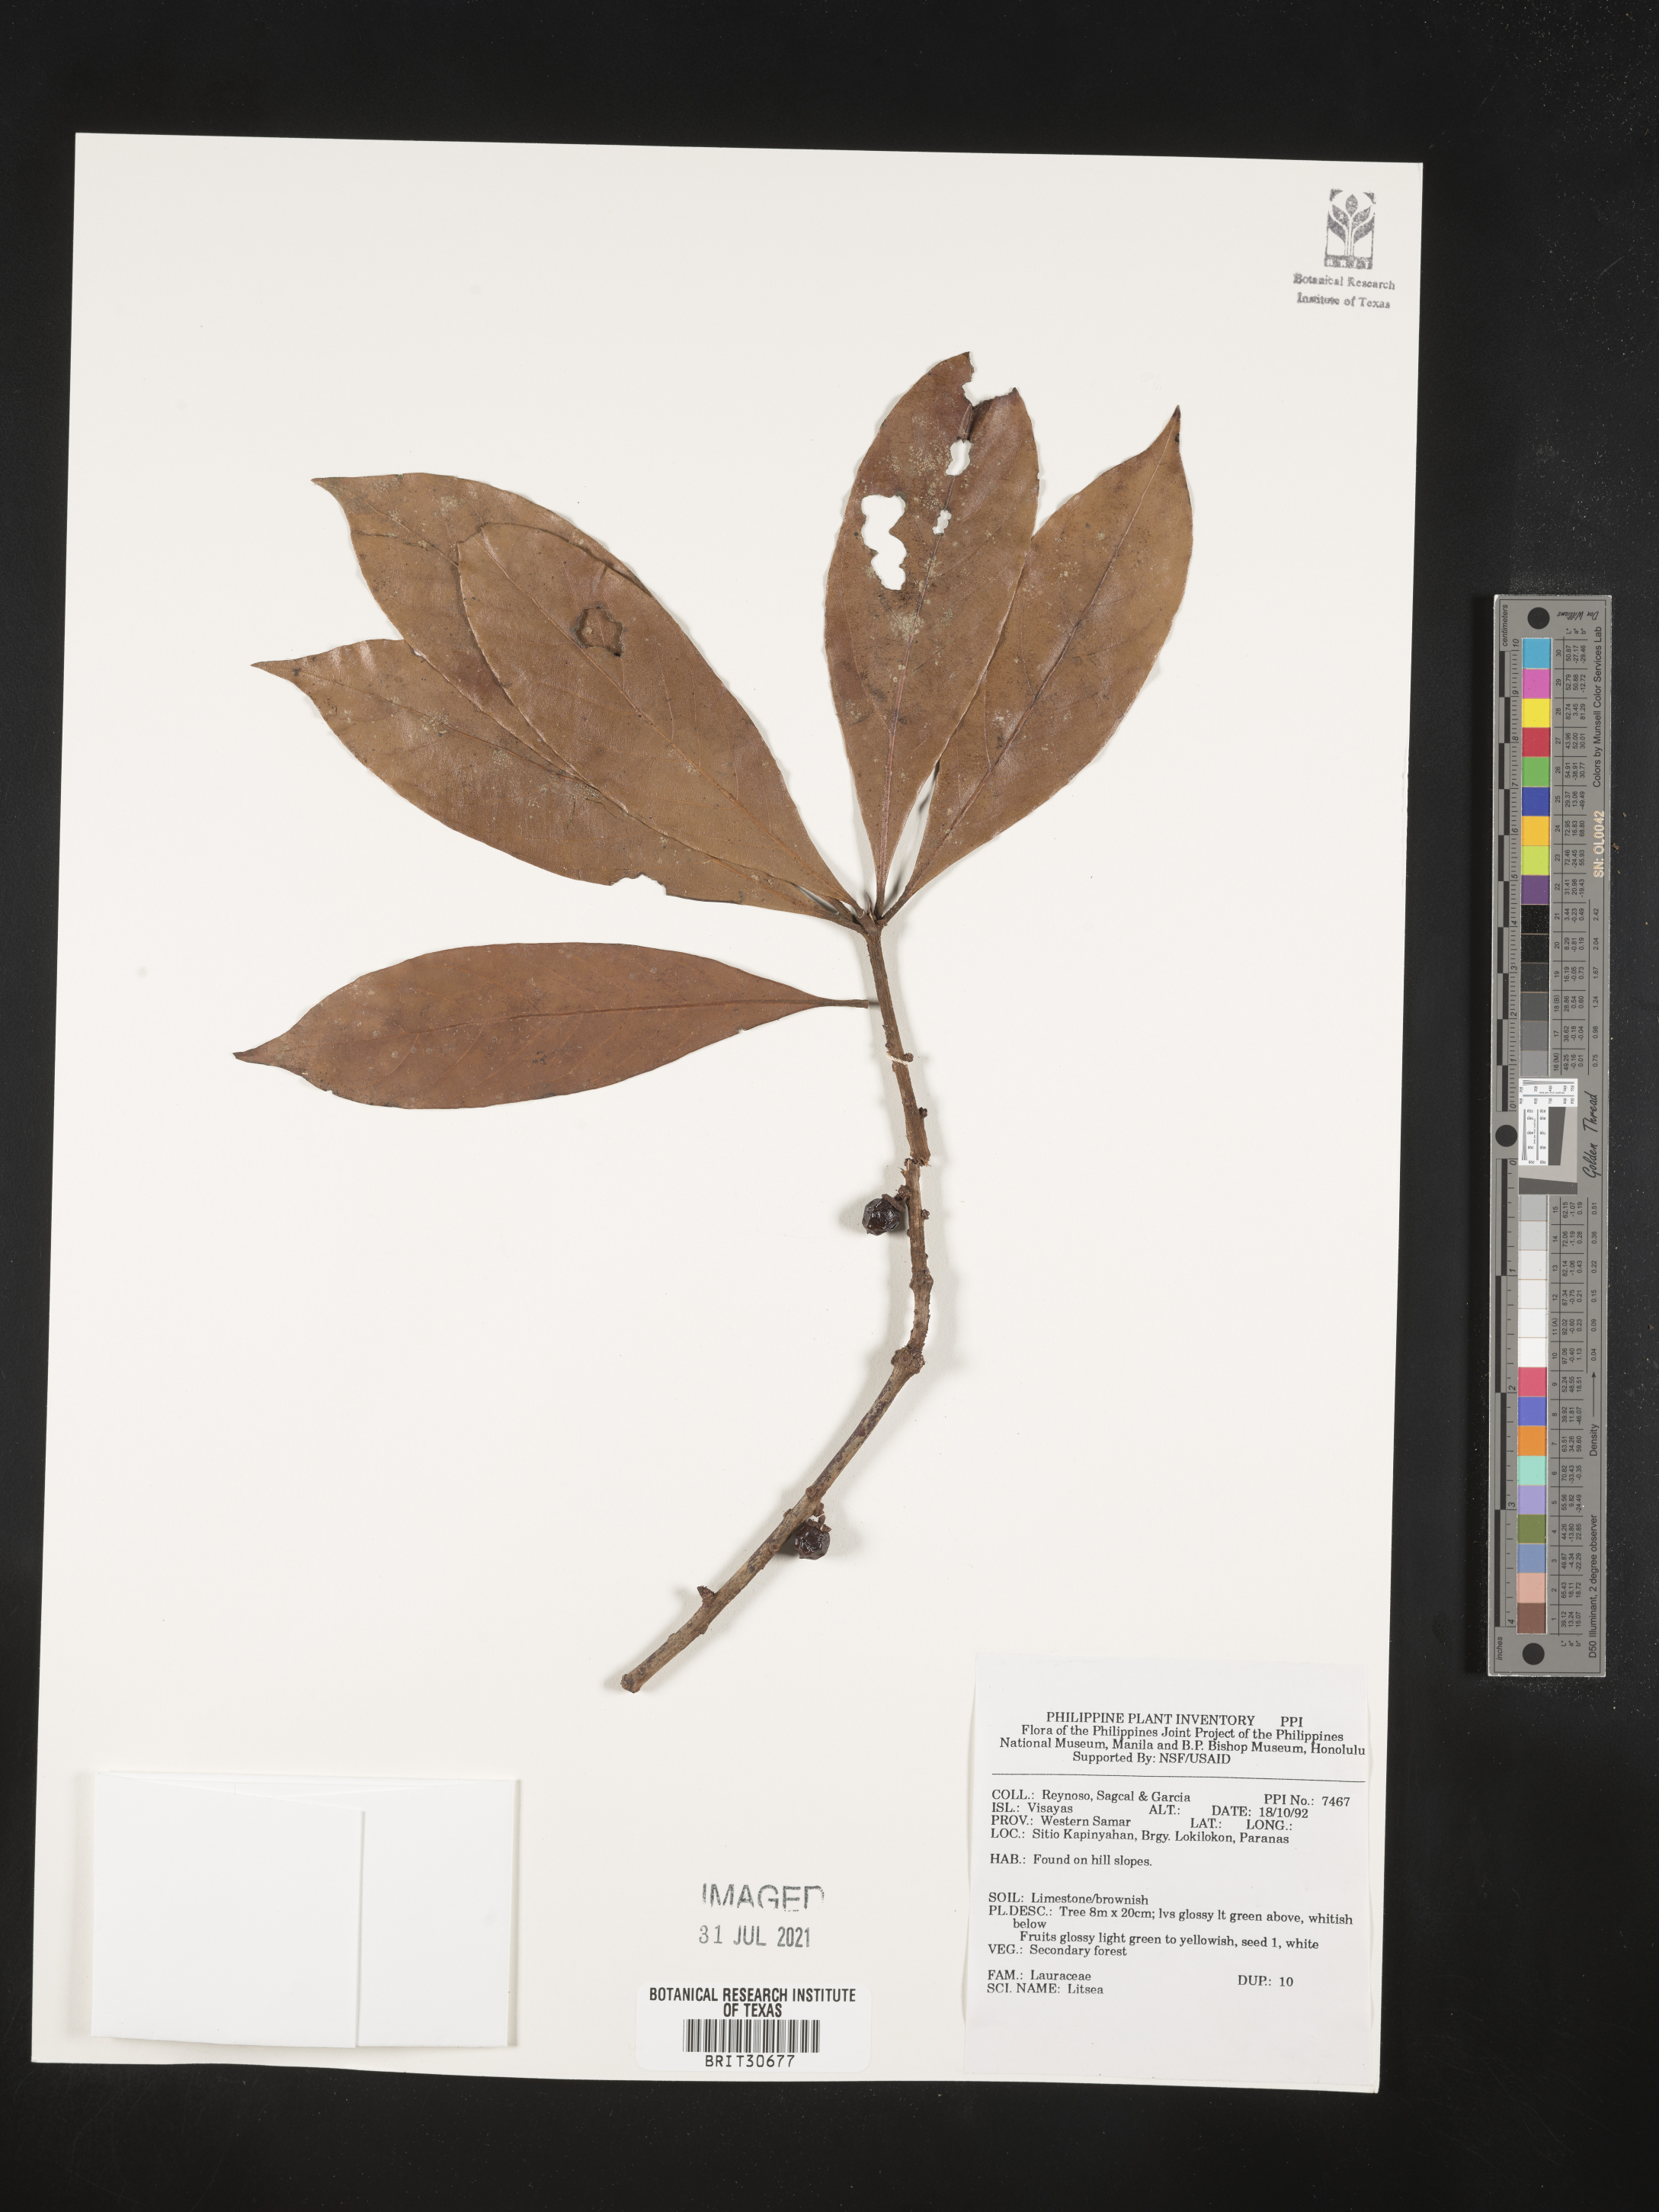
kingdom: Plantae
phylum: Tracheophyta
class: Magnoliopsida
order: Laurales
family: Lauraceae
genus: Litsea
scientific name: Litsea
